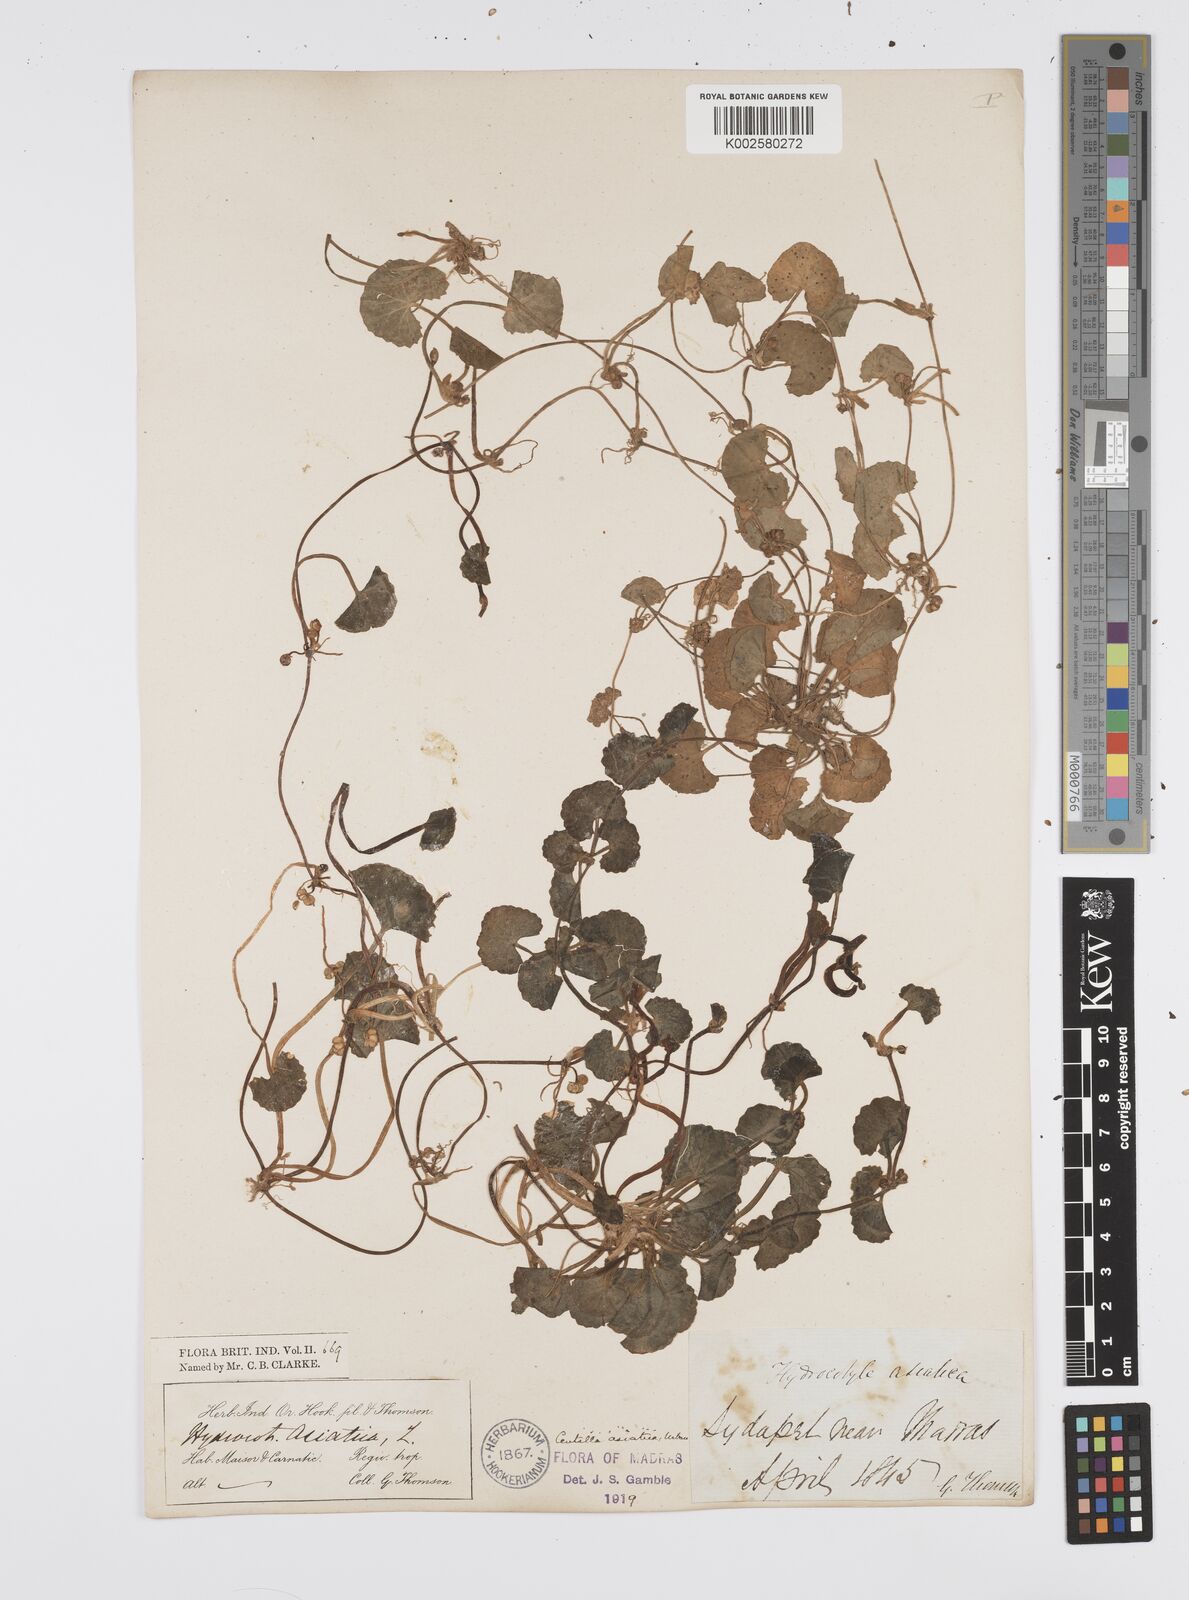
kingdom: Plantae
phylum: Tracheophyta
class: Magnoliopsida
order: Apiales
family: Apiaceae
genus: Centella
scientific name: Centella asiatica
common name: Spadeleaf
